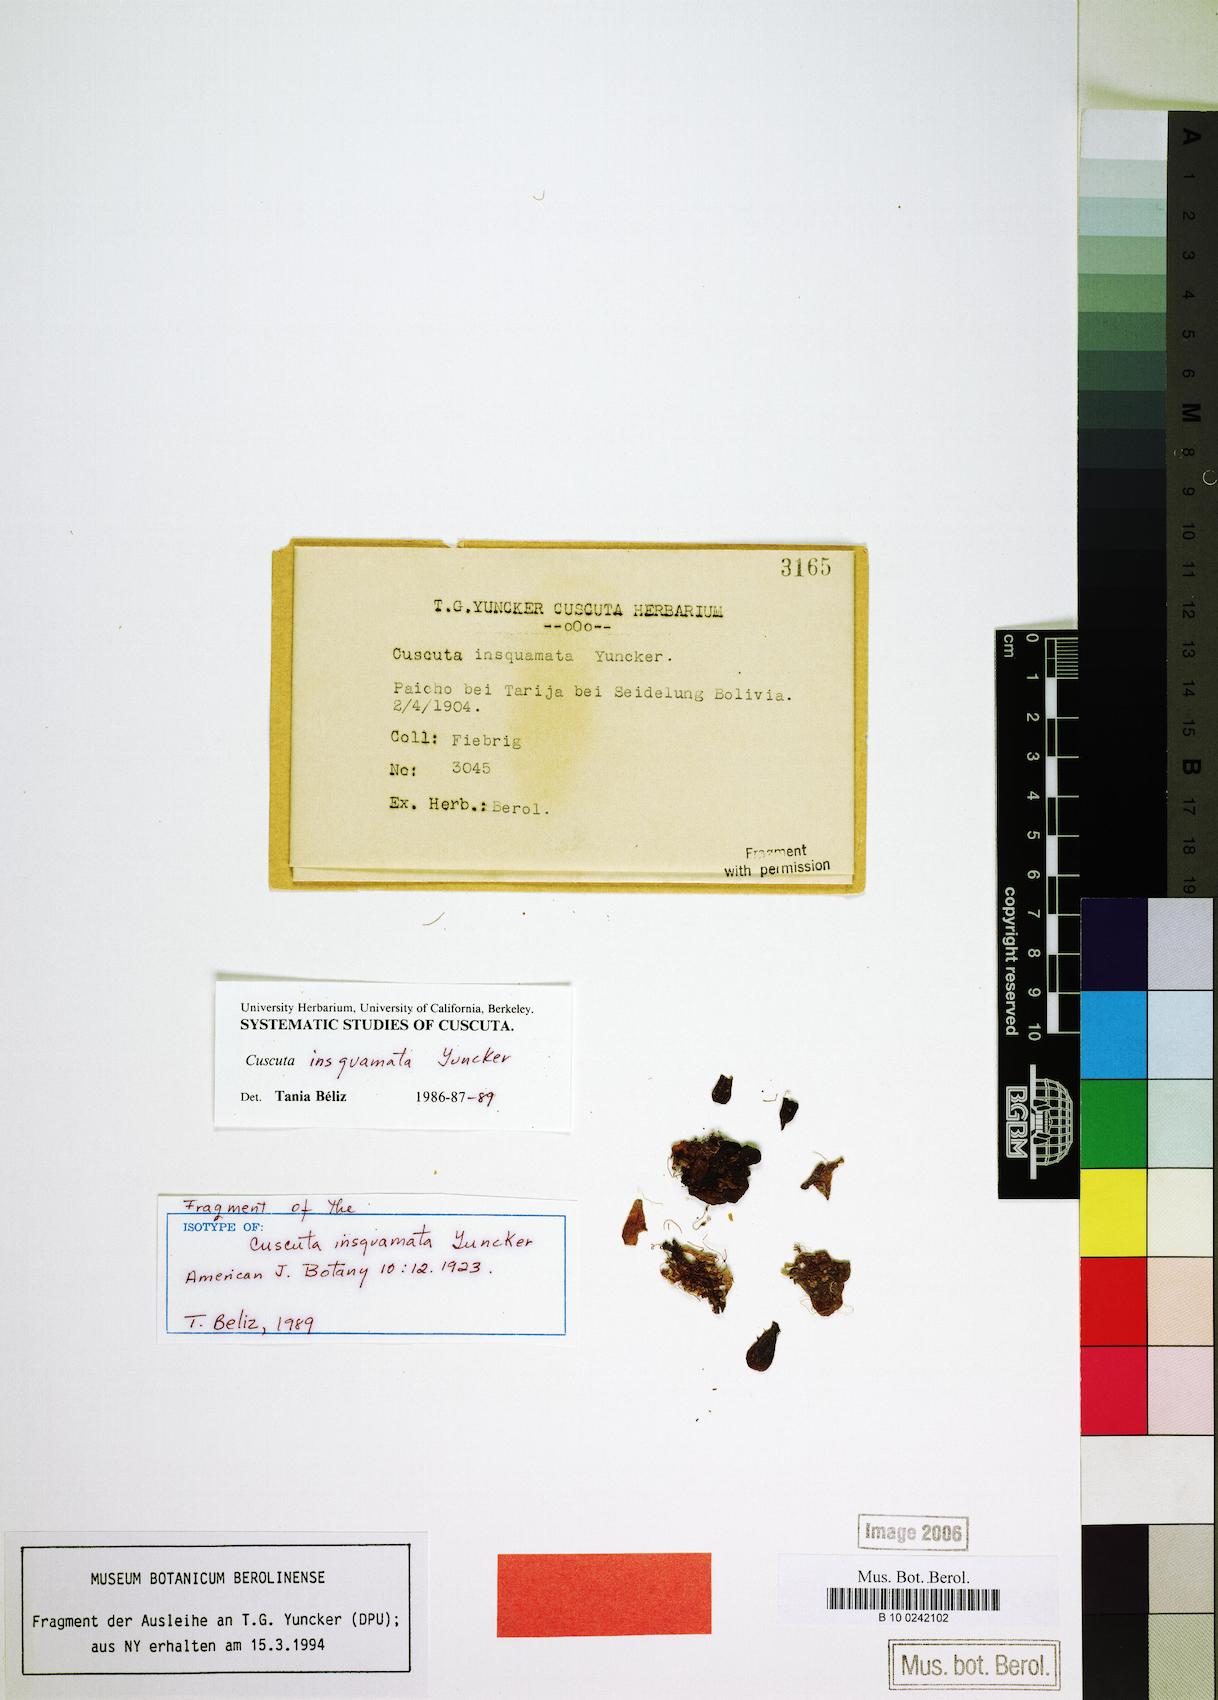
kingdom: Plantae
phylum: Tracheophyta
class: Magnoliopsida
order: Solanales
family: Convolvulaceae
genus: Cuscuta
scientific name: Cuscuta insquamata
